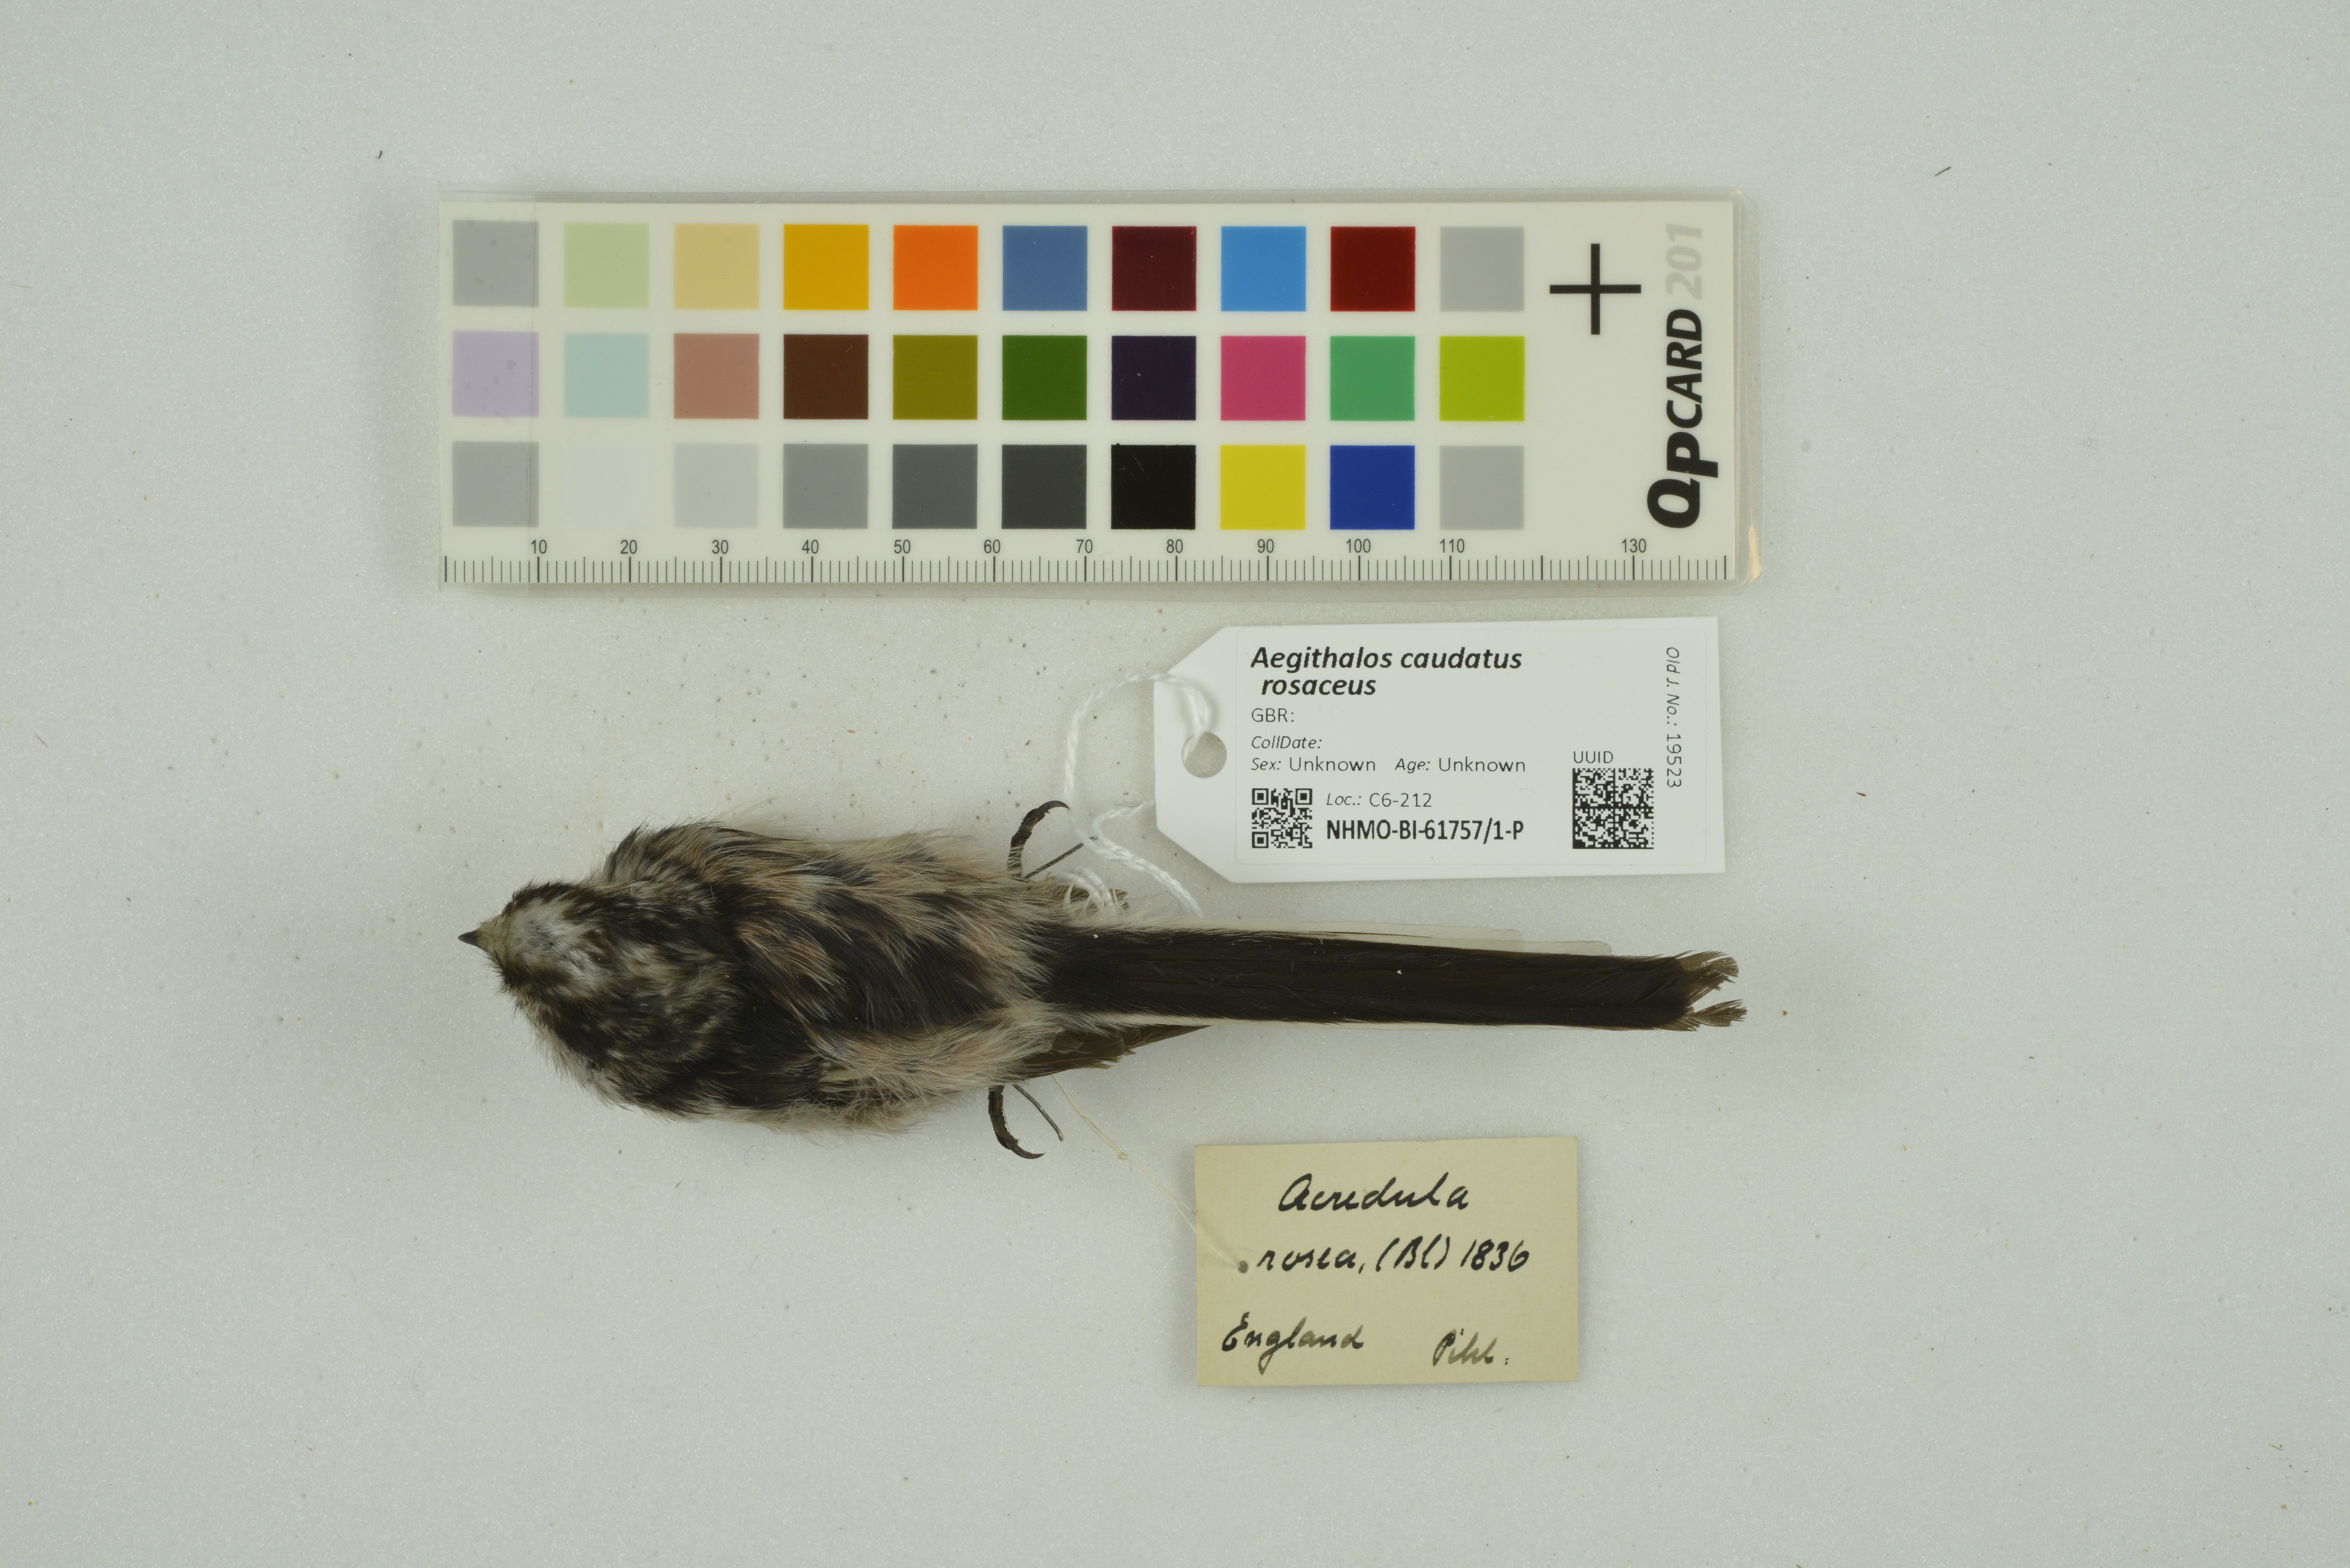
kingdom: Animalia
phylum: Chordata
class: Aves
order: Passeriformes
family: Aegithalidae
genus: Aegithalos
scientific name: Aegithalos caudatus
